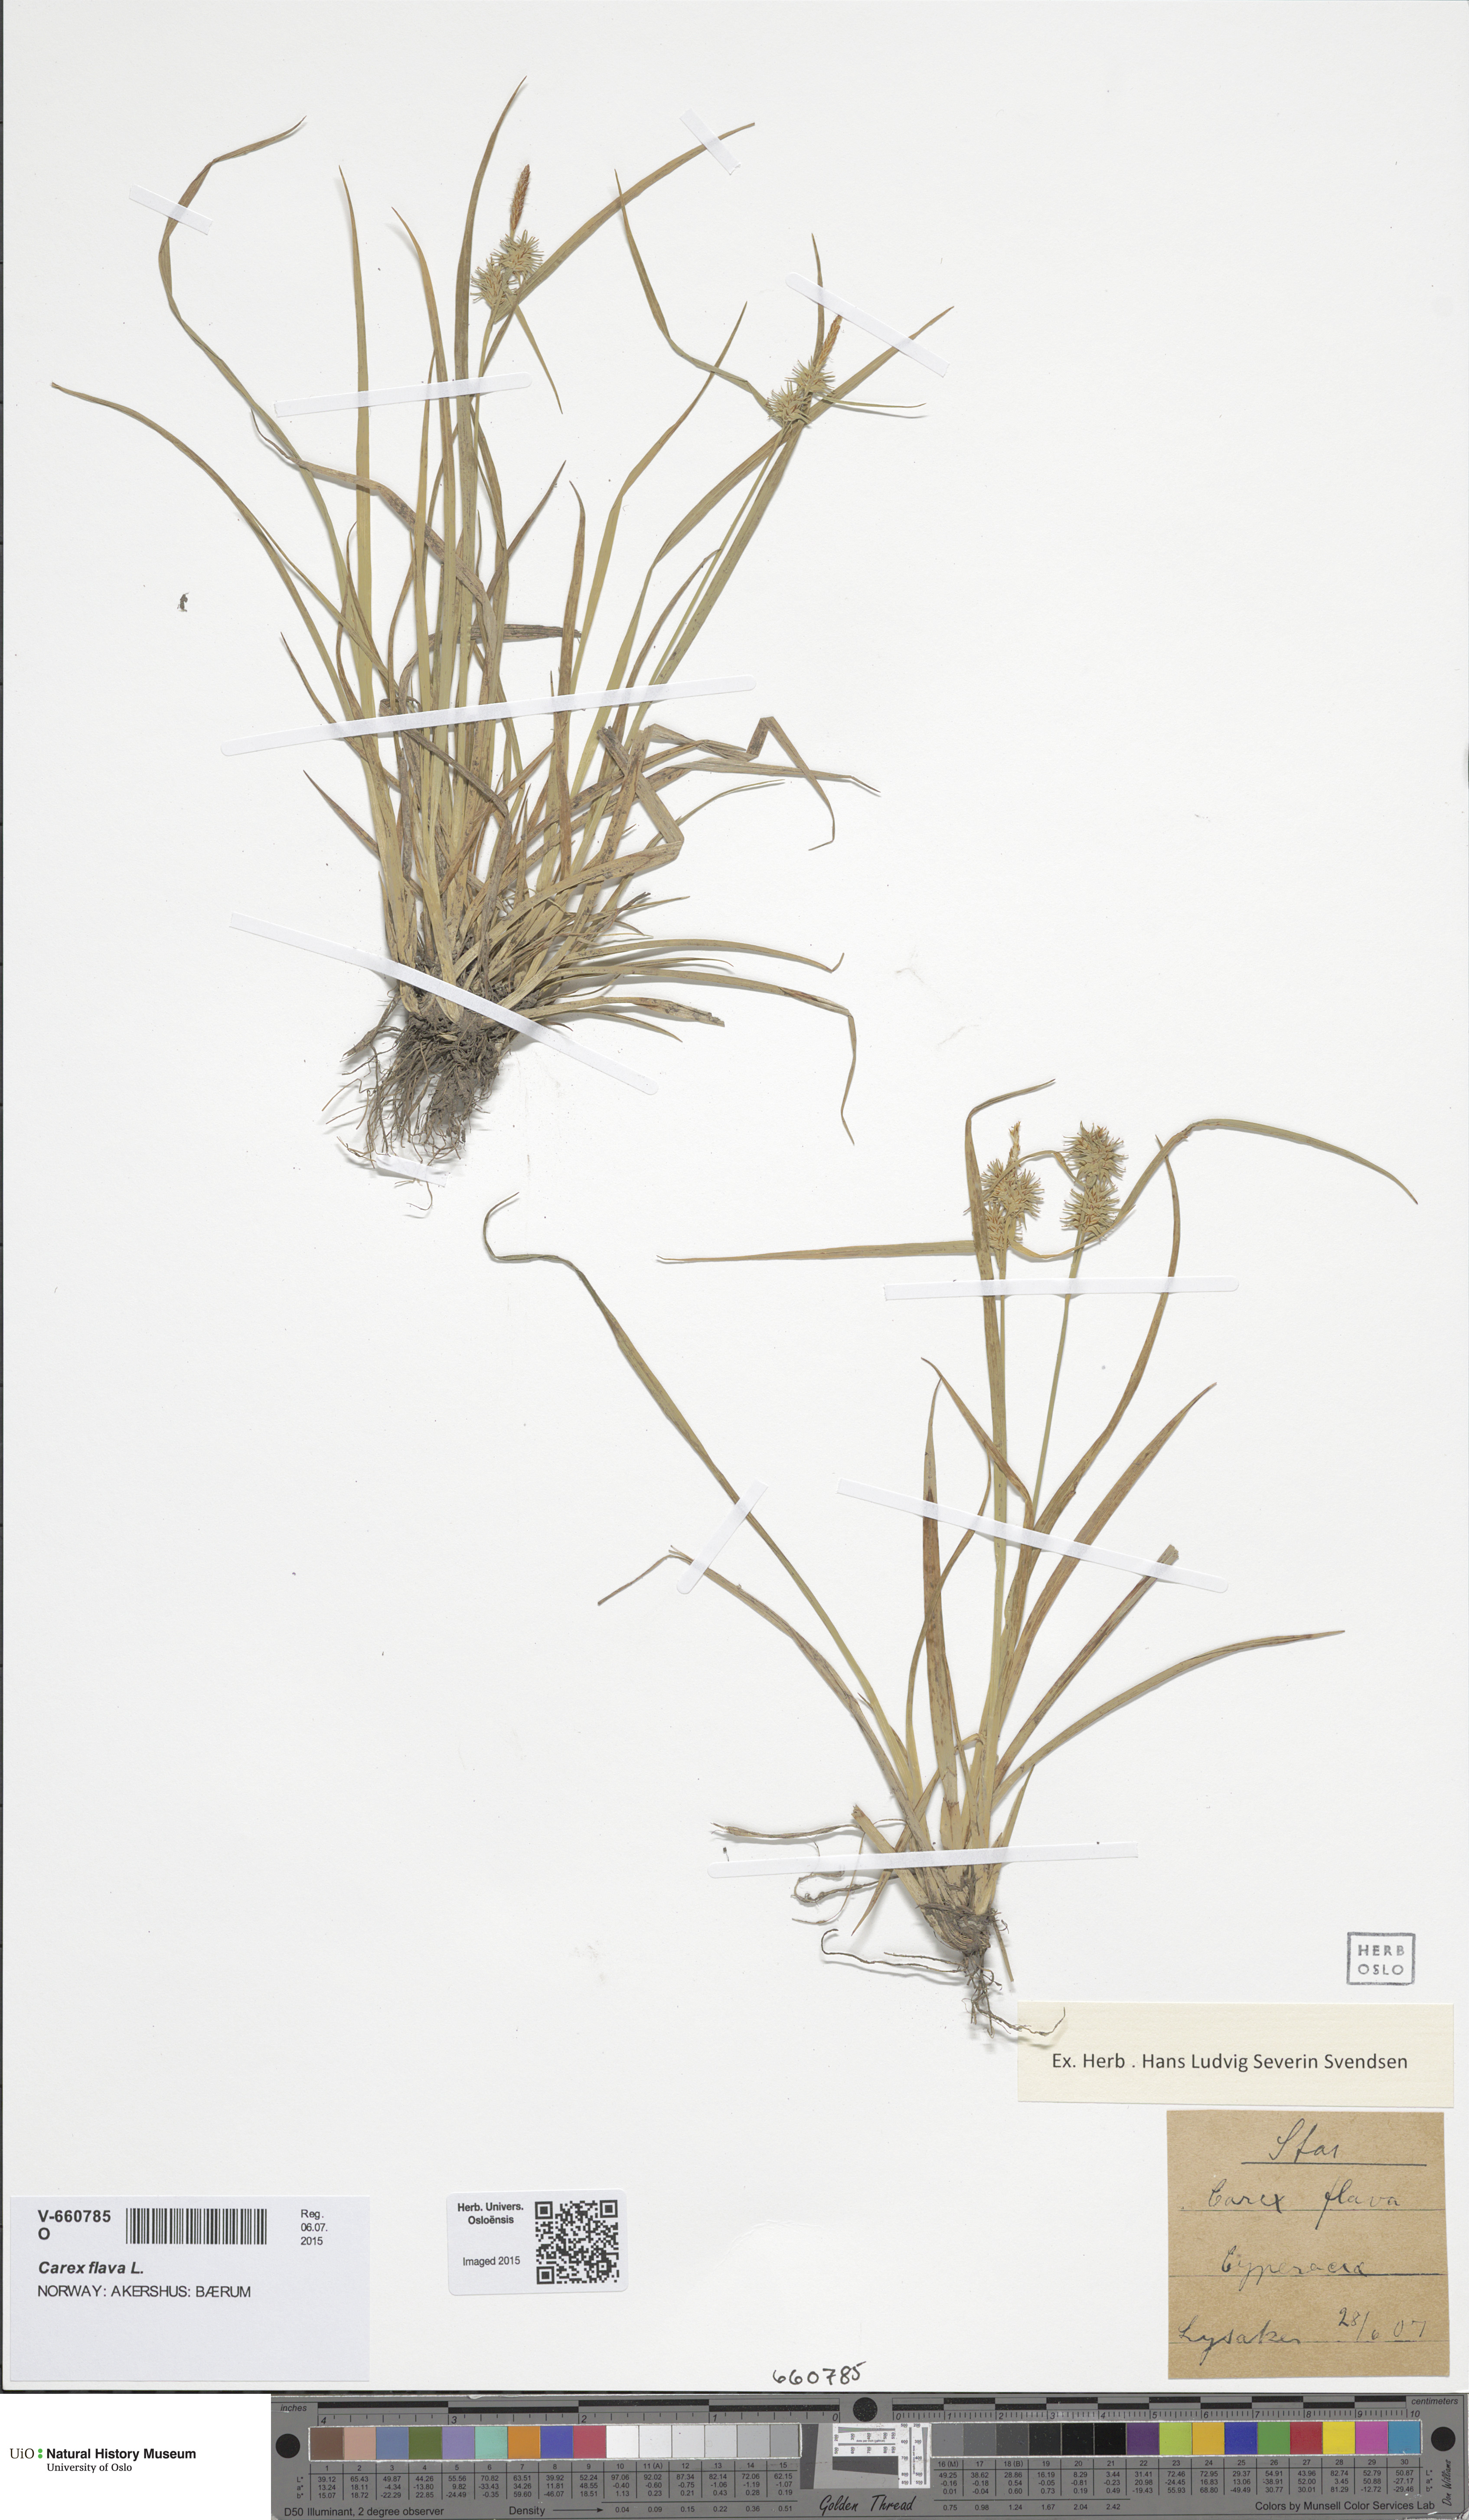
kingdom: Plantae
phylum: Tracheophyta
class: Liliopsida
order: Poales
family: Cyperaceae
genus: Carex
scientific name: Carex flava
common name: Large yellow-sedge
